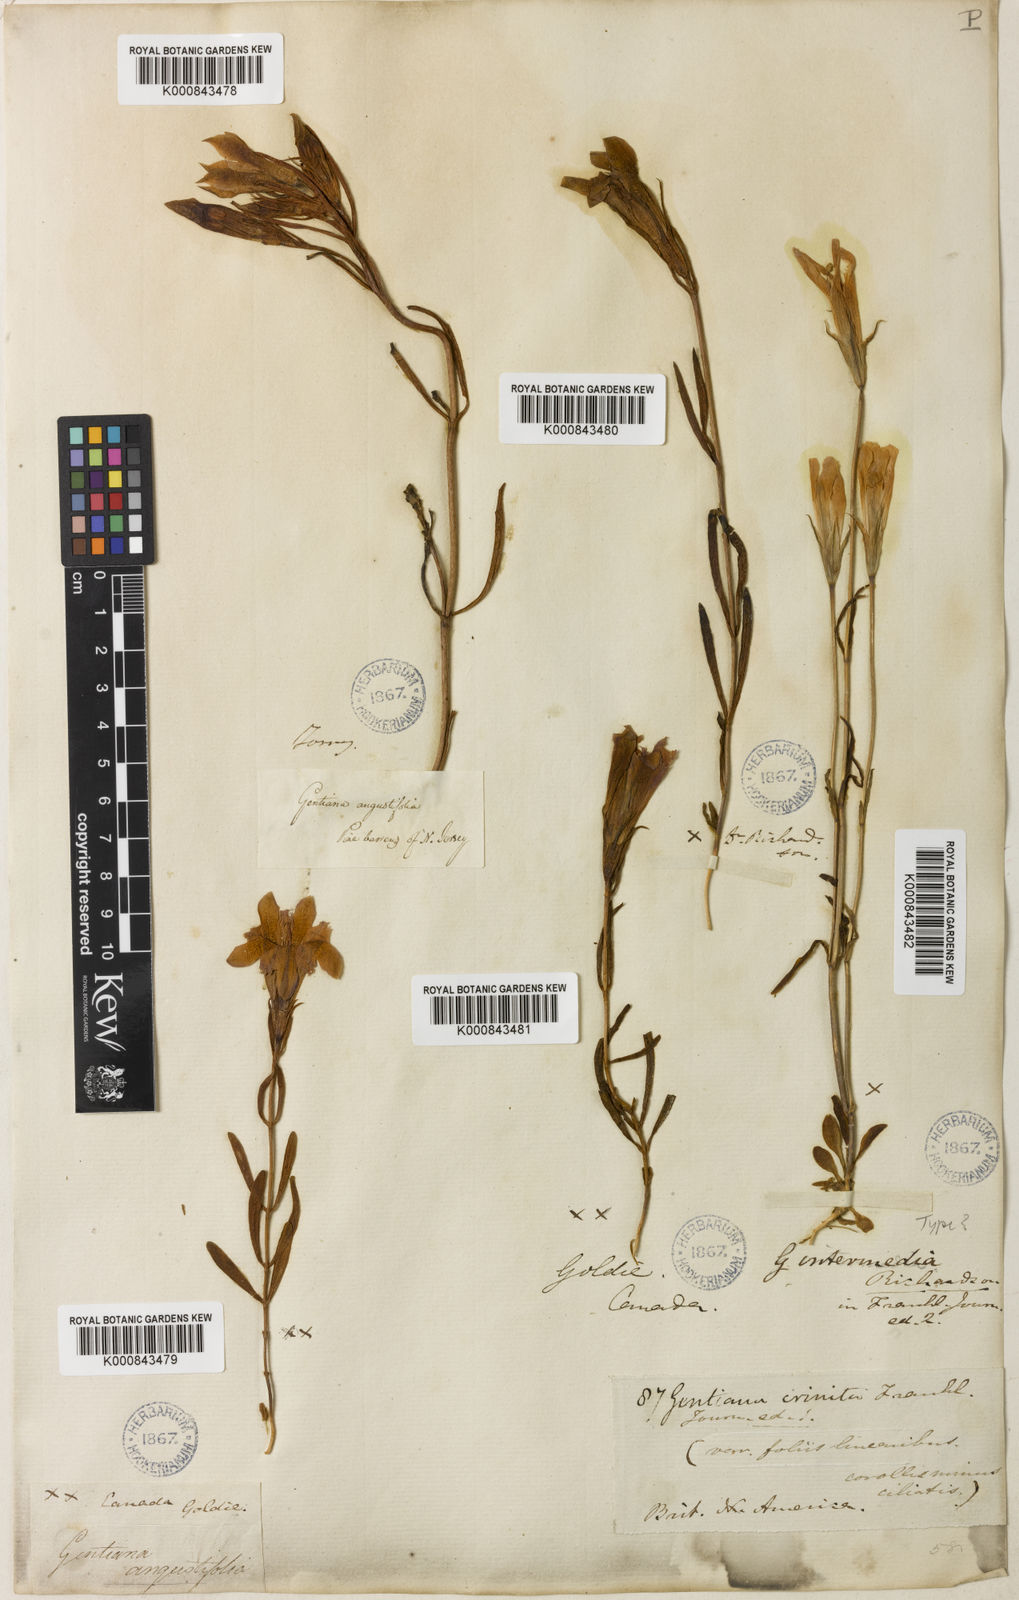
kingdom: Plantae
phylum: Tracheophyta
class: Magnoliopsida
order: Gentianales
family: Gentianaceae
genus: Gentianopsis
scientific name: Gentianopsis crinita
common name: Fringed-gentian
